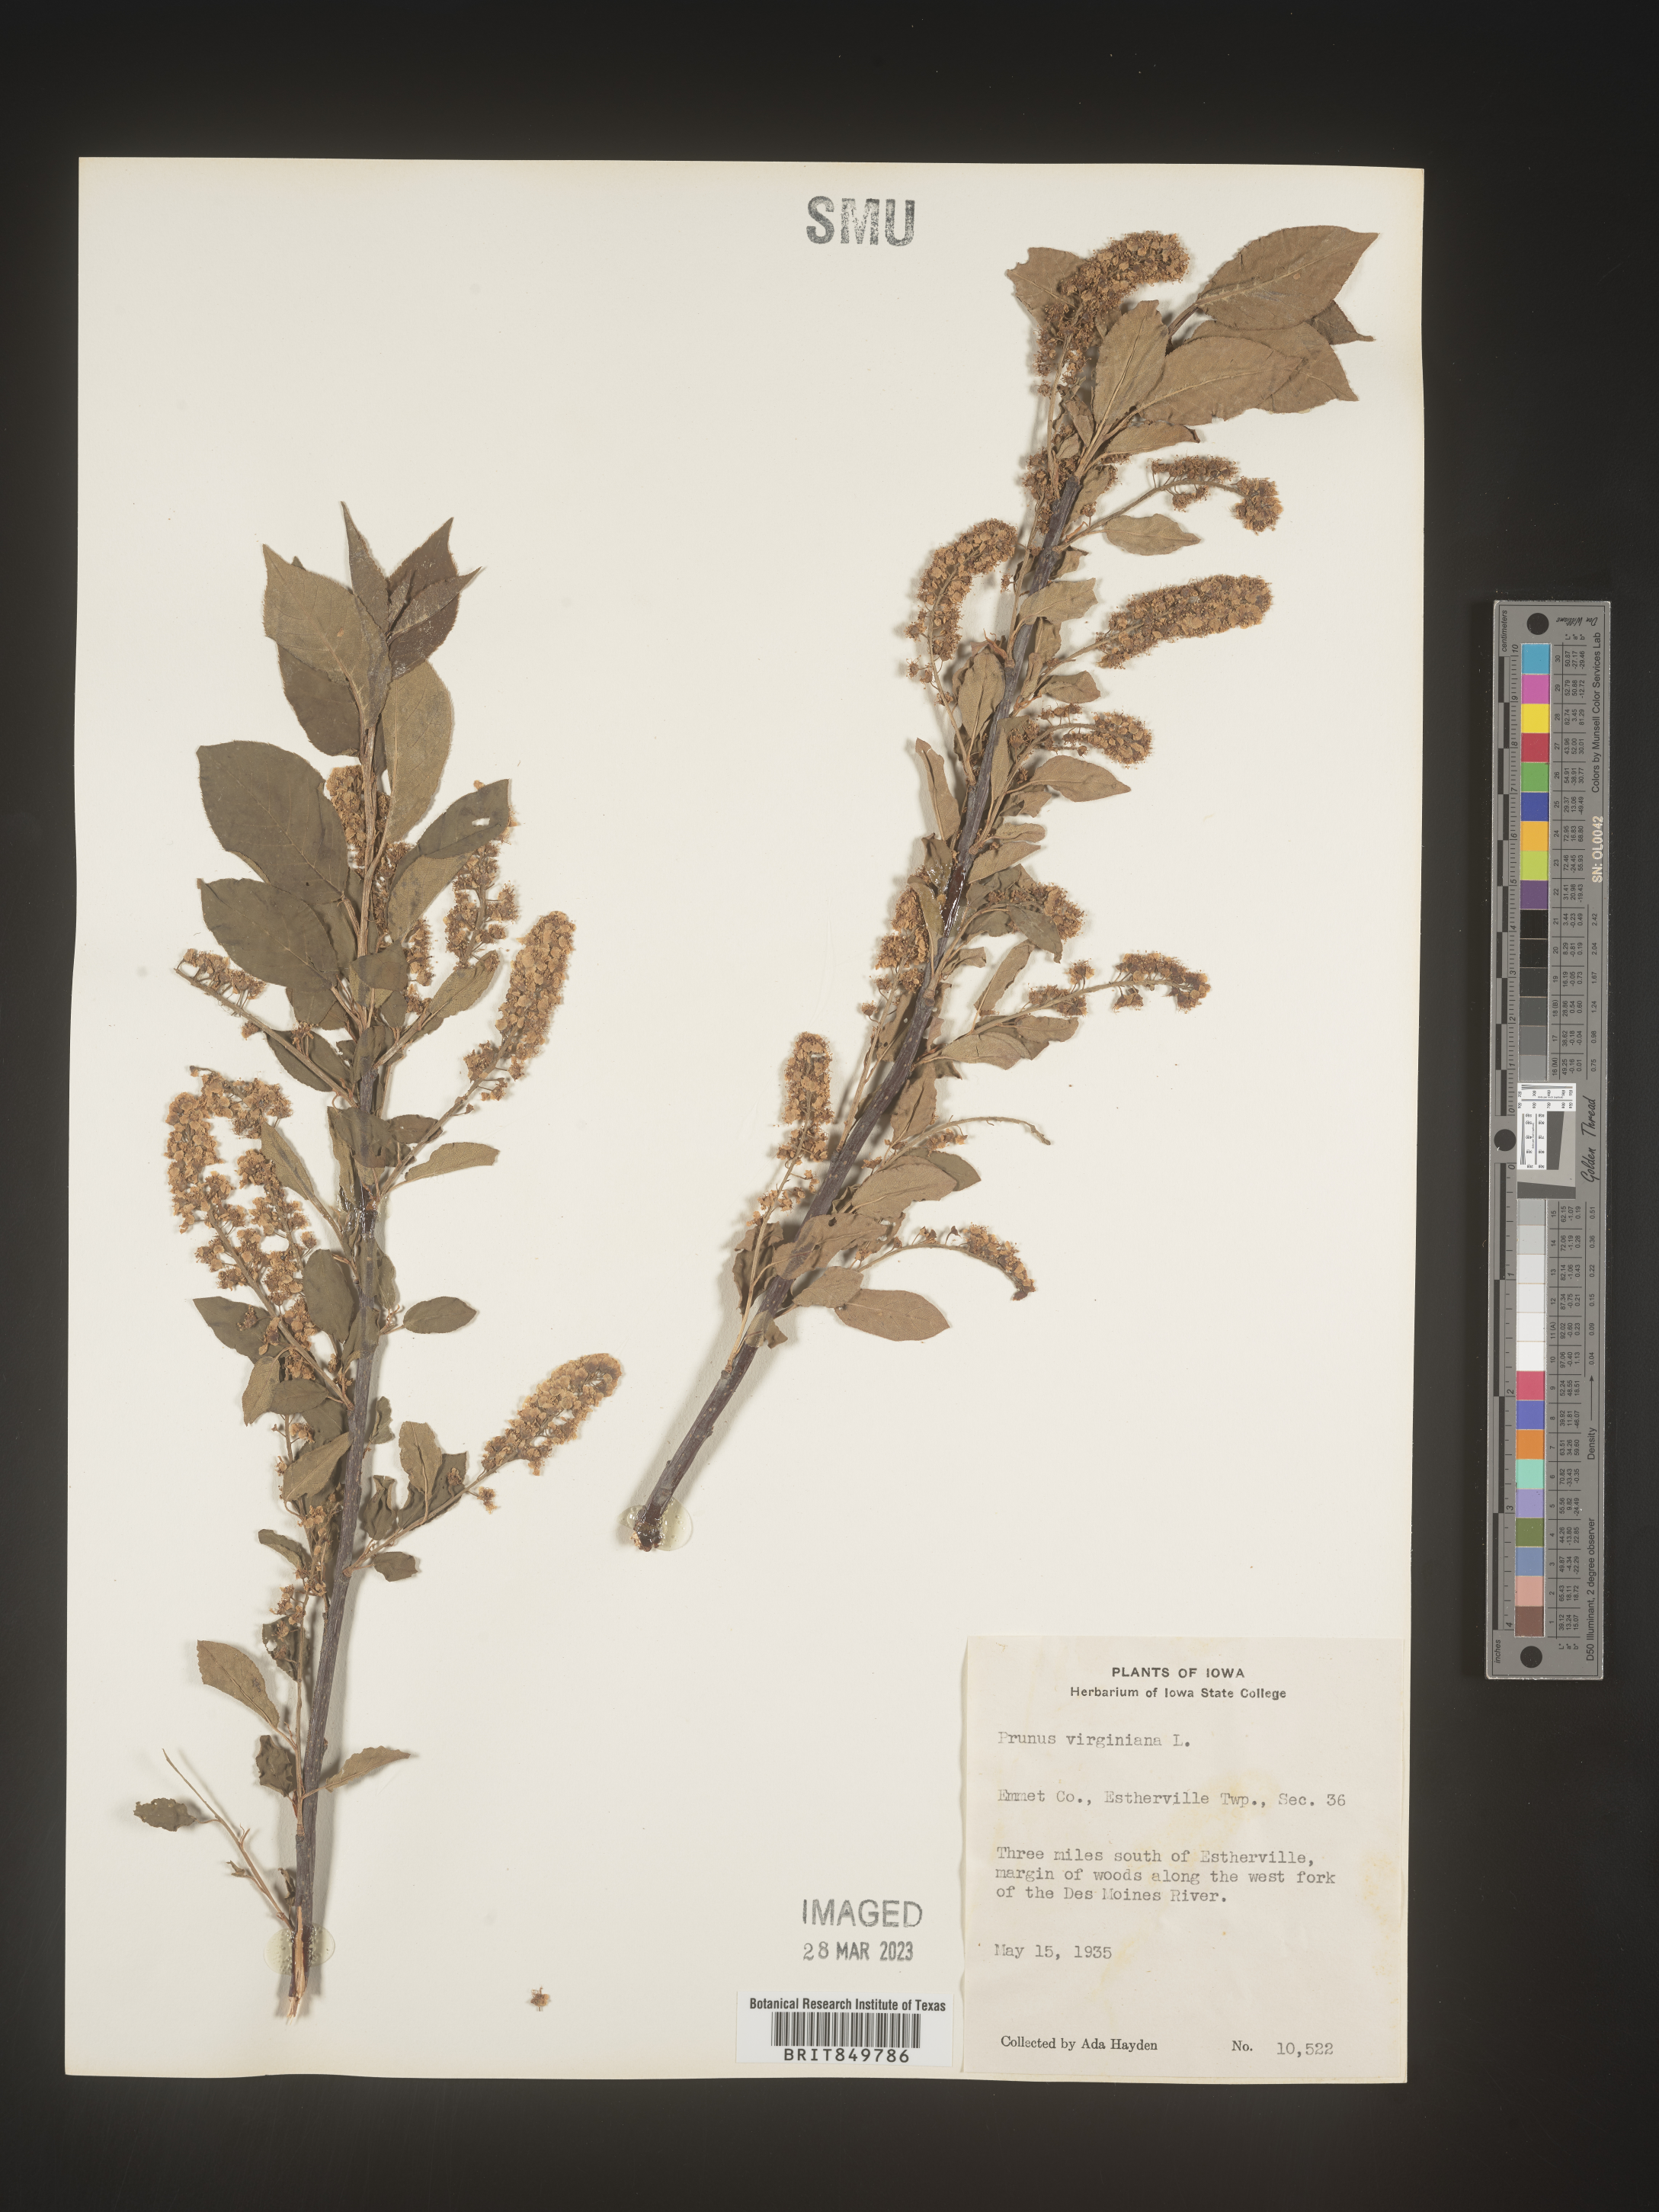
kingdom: Plantae
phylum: Tracheophyta
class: Magnoliopsida
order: Rosales
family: Rosaceae
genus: Prunus
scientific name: Prunus virginiana
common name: Chokecherry
